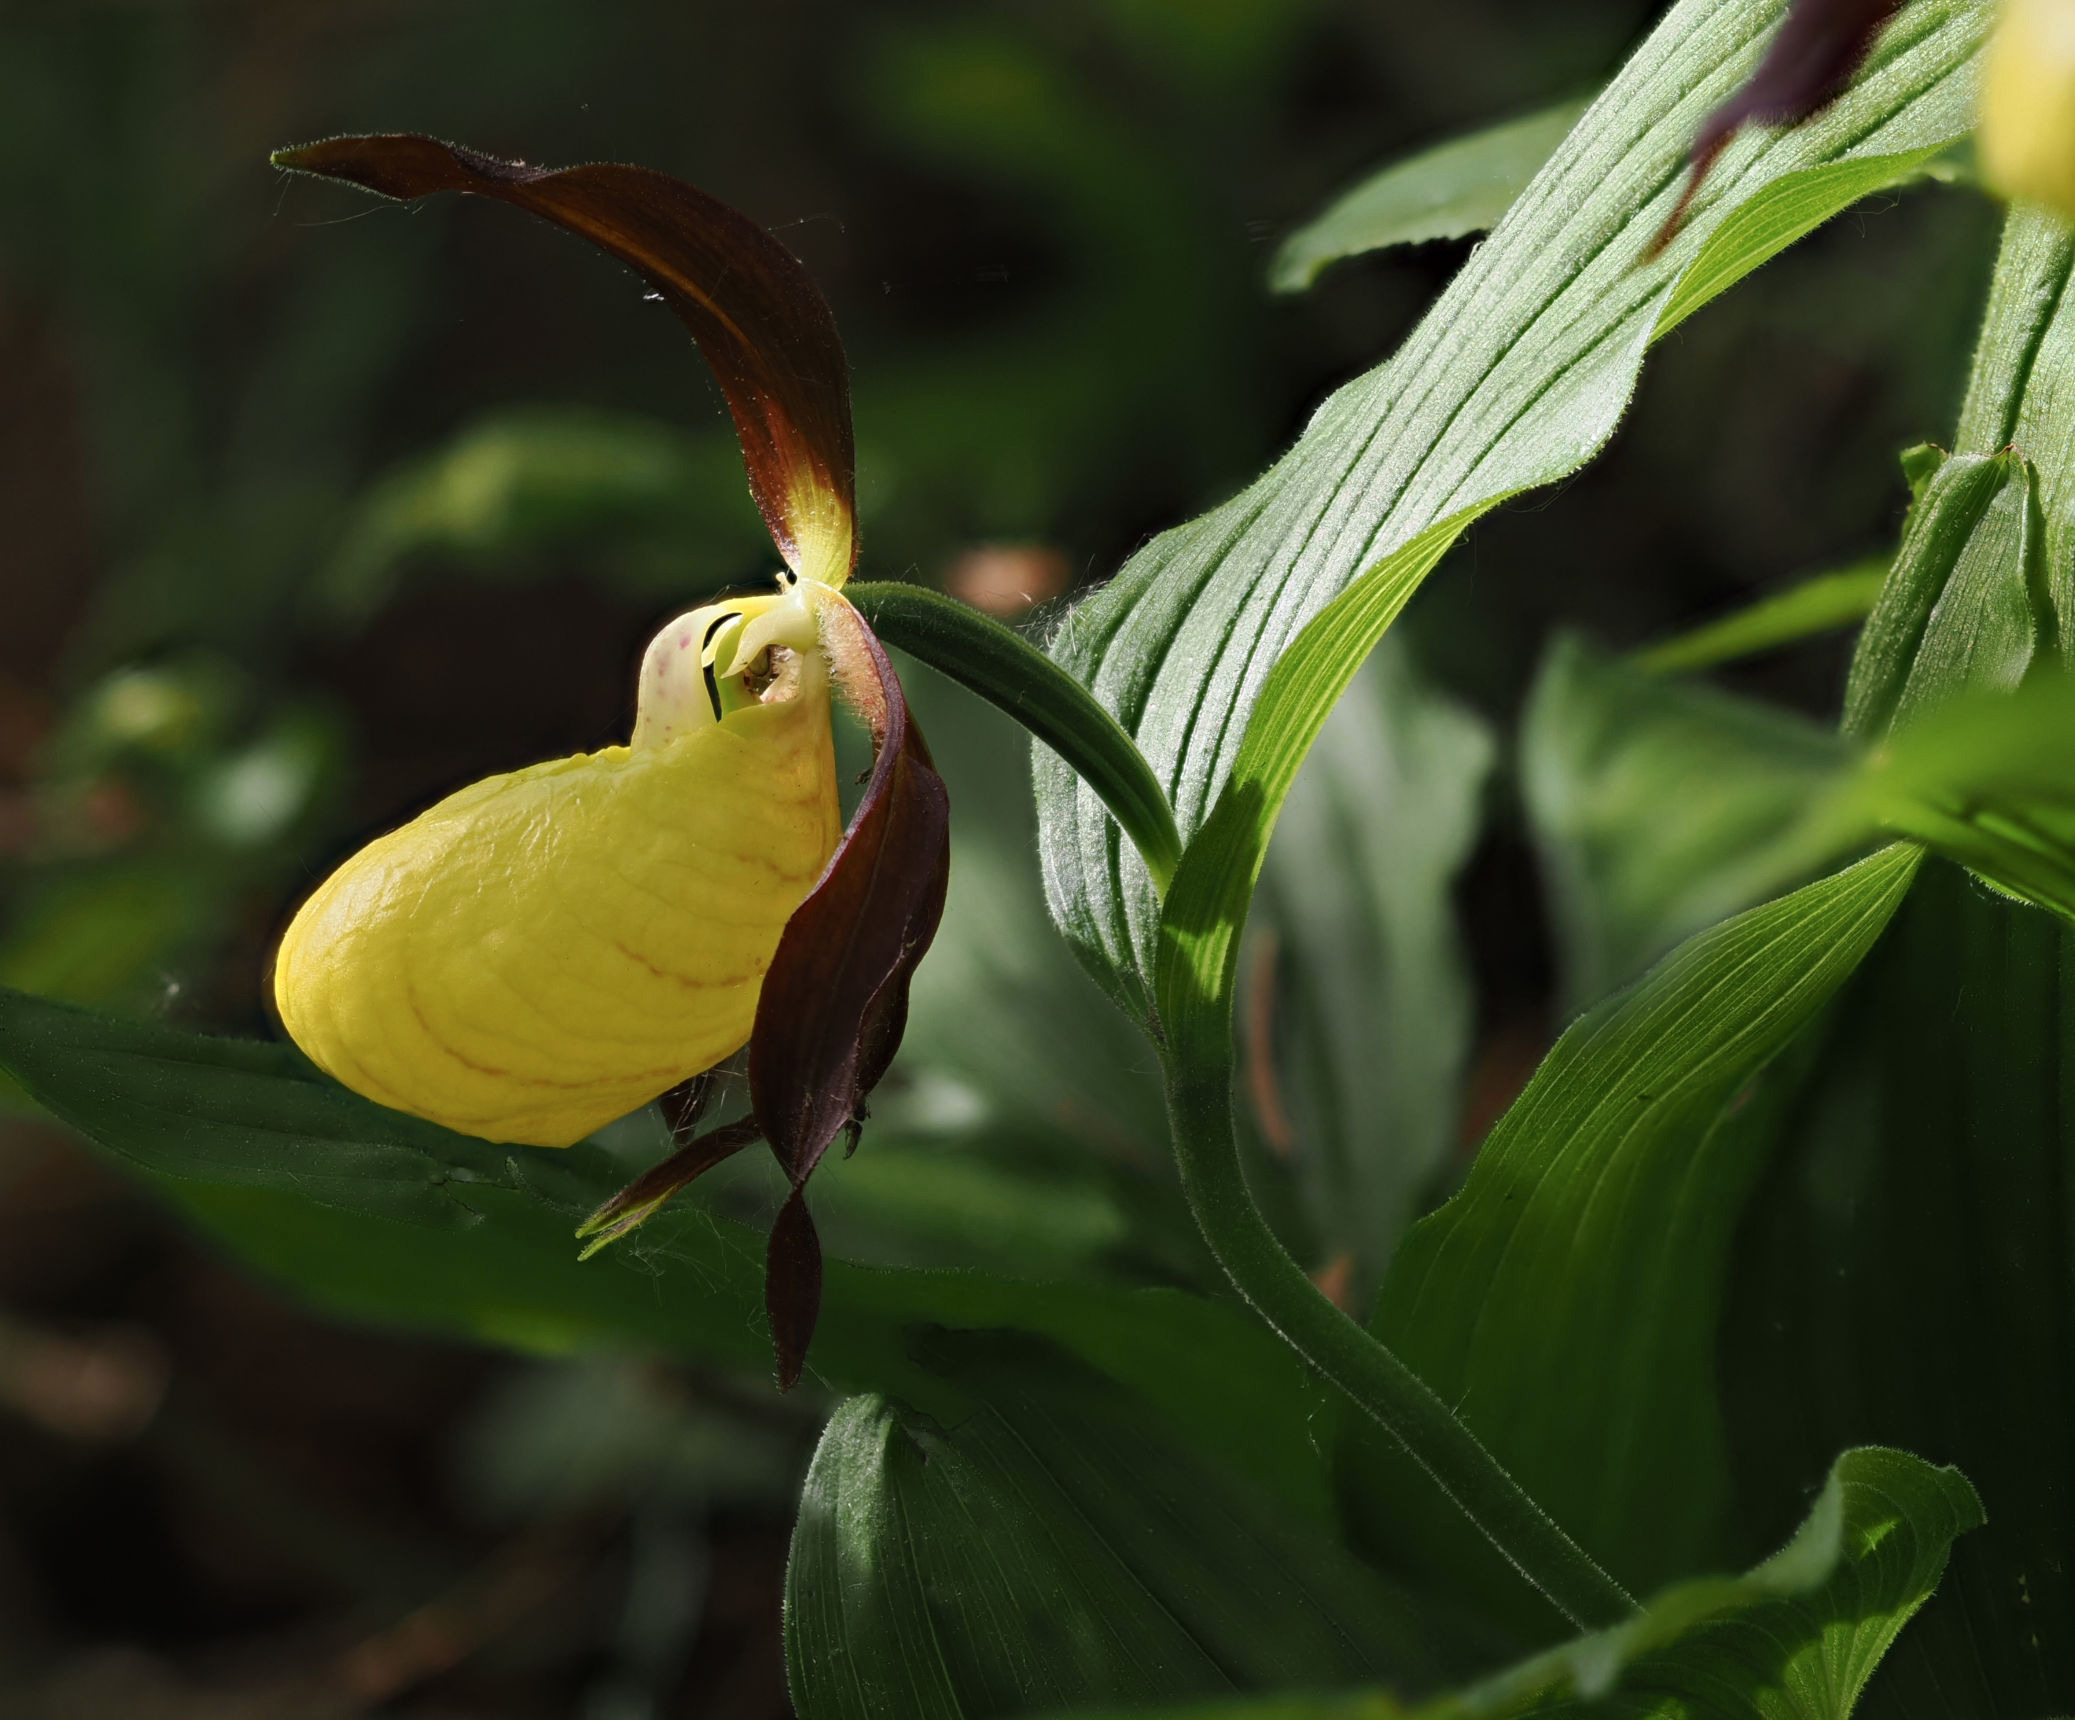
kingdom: Plantae
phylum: Tracheophyta
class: Liliopsida
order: Asparagales
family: Orchidaceae
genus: Cypripedium
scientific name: Cypripedium calceolus
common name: Fruesko
